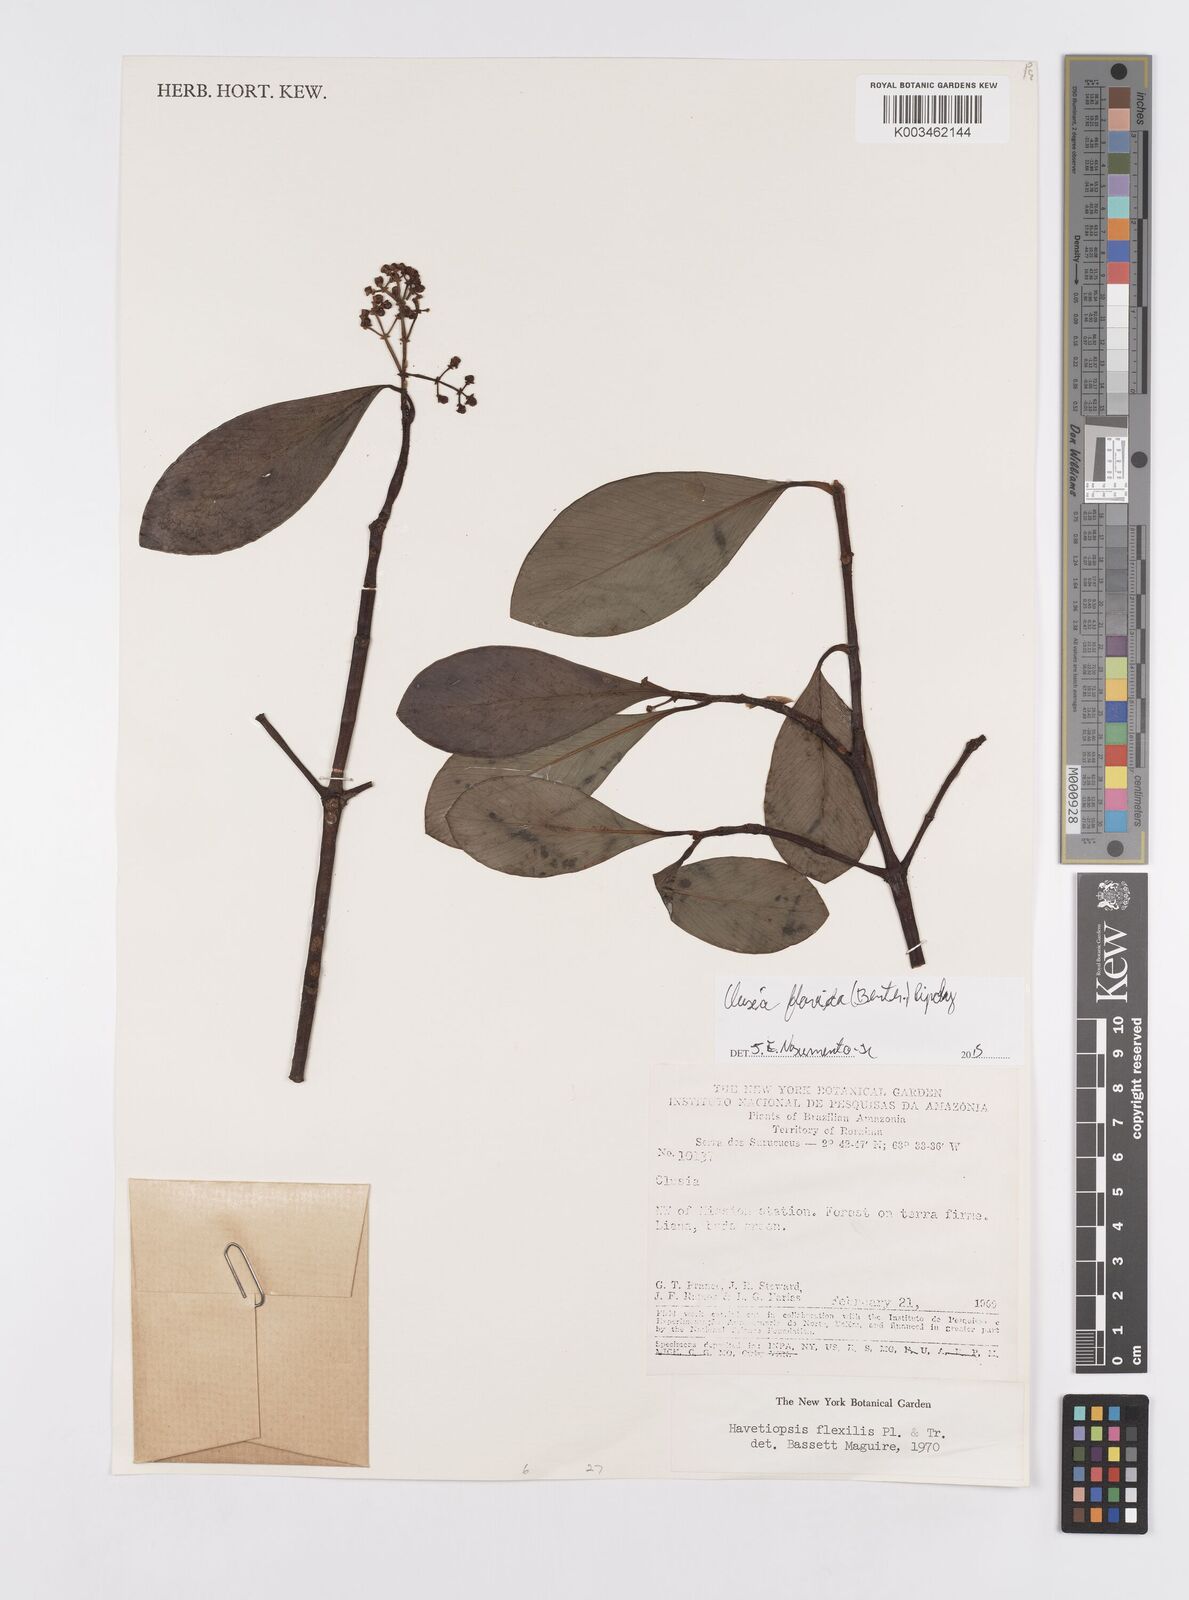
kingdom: Plantae
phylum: Tracheophyta
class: Magnoliopsida
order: Malpighiales
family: Clusiaceae
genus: Clusia
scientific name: Clusia flavida
